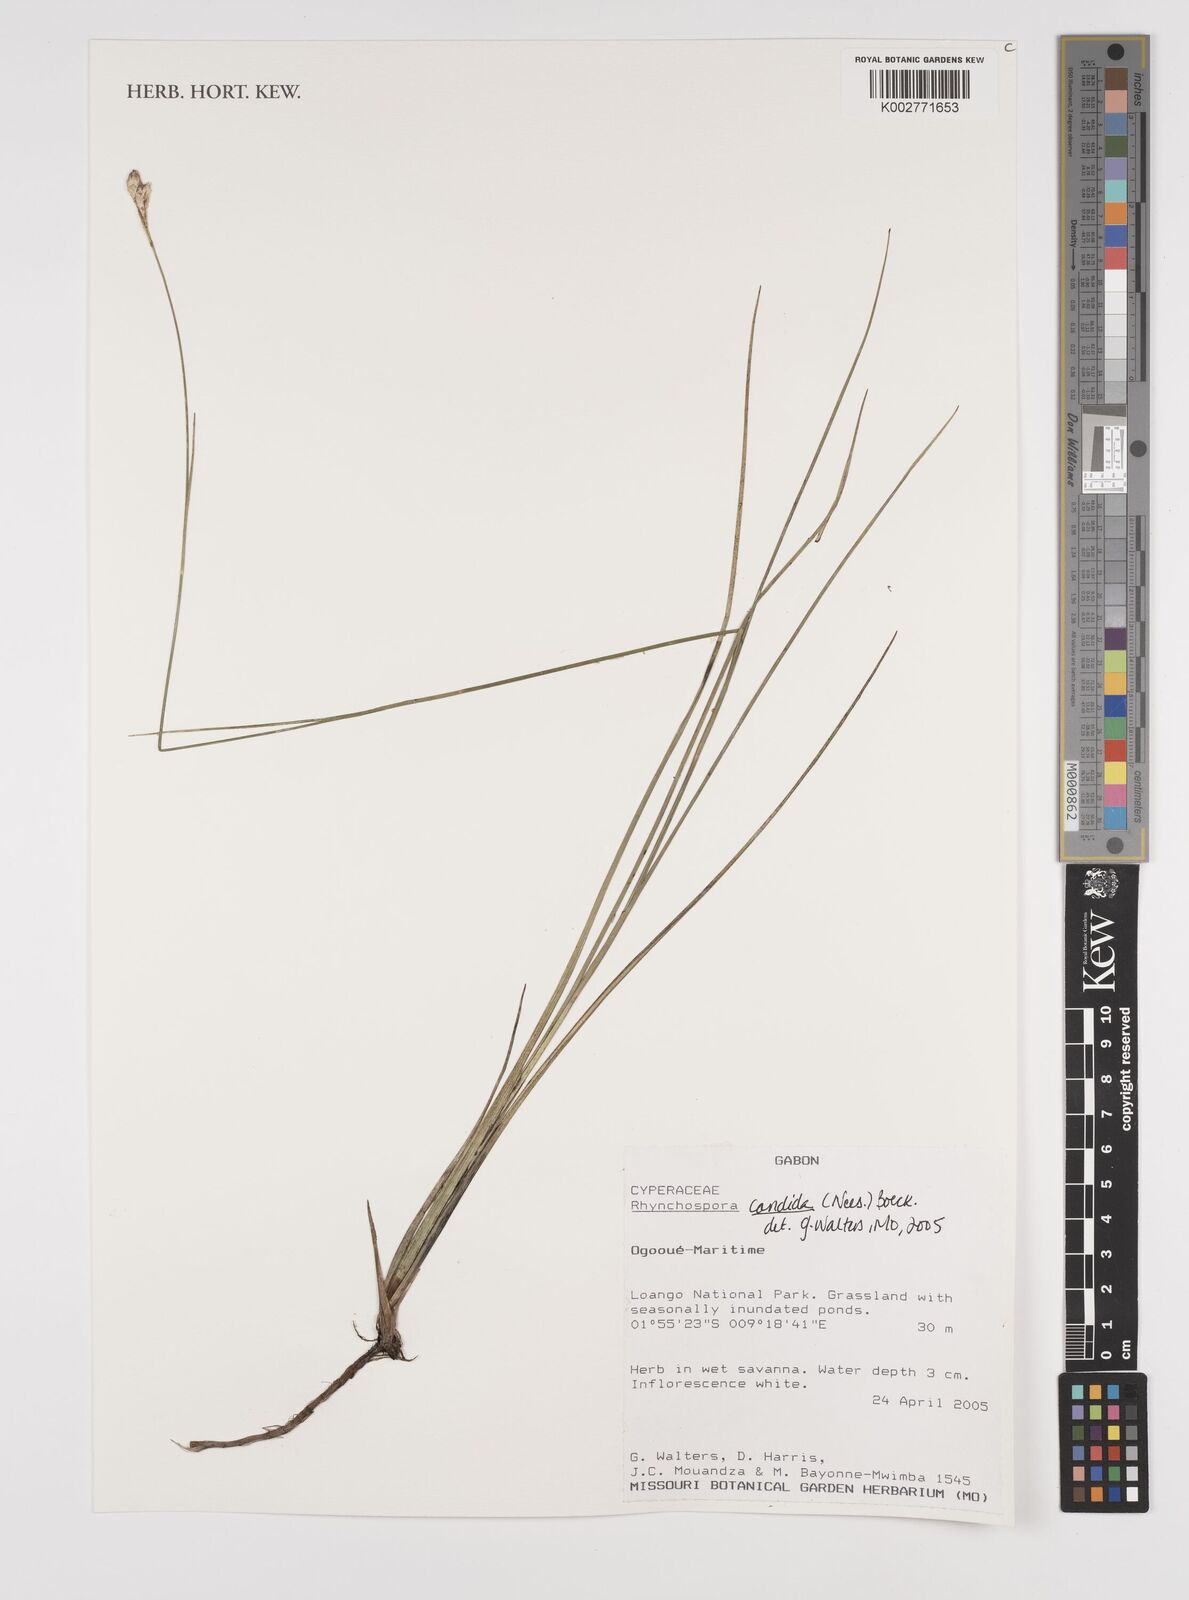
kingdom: Plantae
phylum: Tracheophyta
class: Liliopsida
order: Poales
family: Cyperaceae
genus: Rhynchospora
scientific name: Rhynchospora candida
